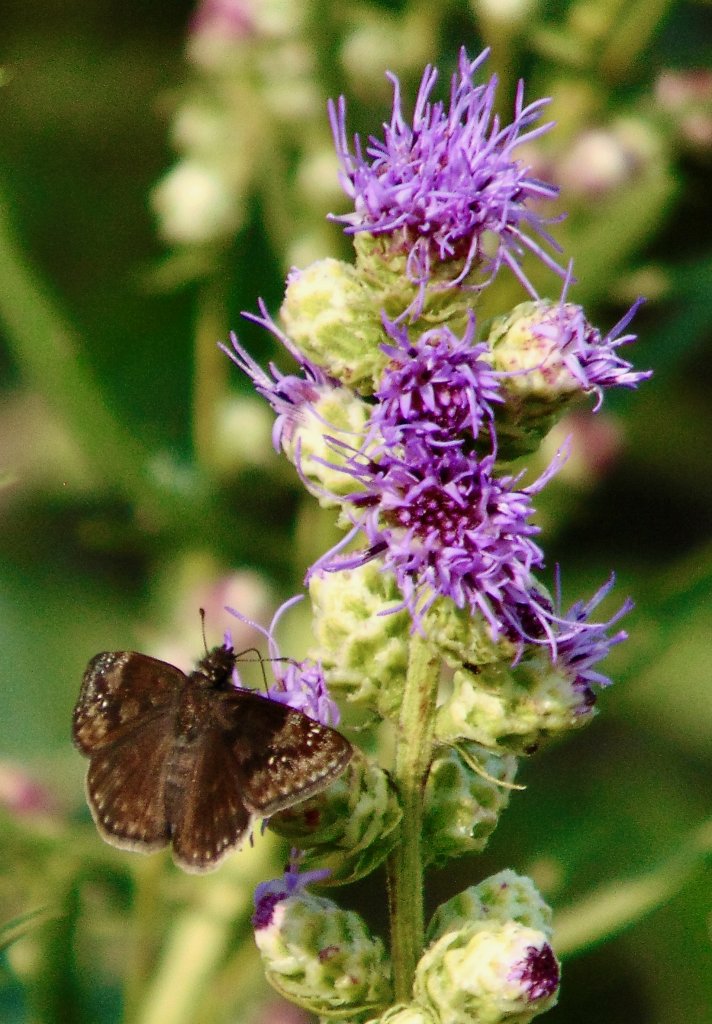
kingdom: Animalia
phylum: Arthropoda
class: Insecta
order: Lepidoptera
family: Hesperiidae
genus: Gesta
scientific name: Gesta
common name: Wild Indigo Duskywing
